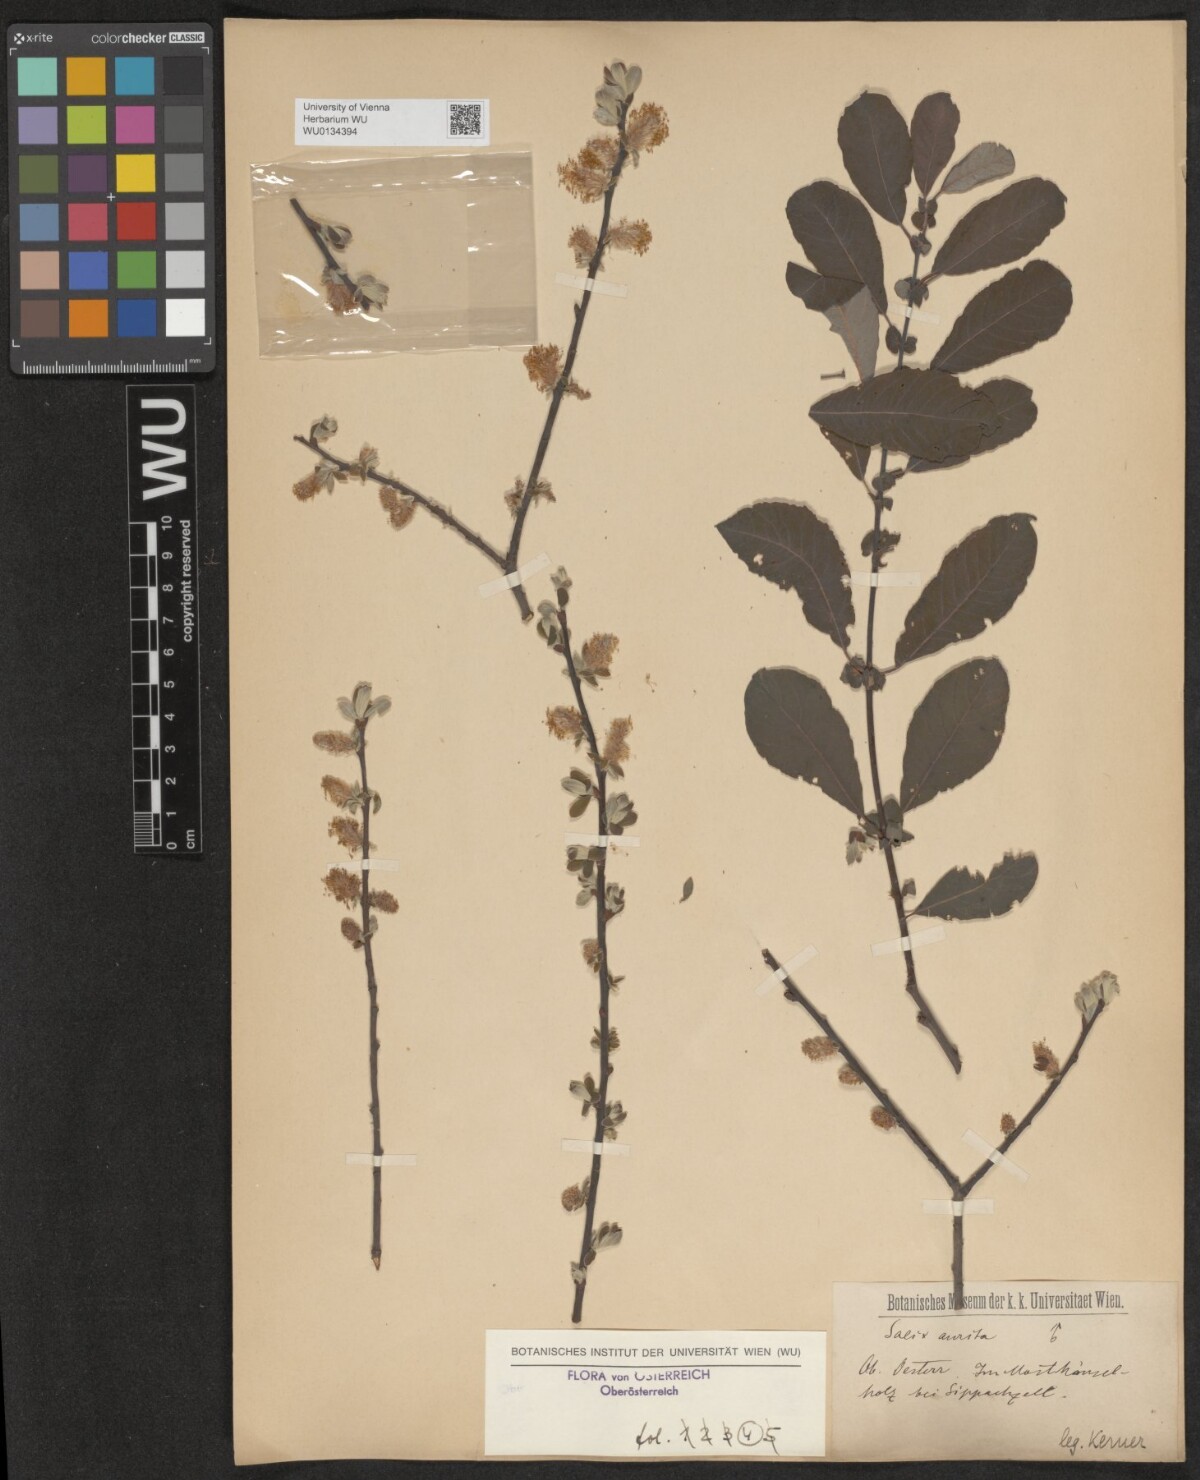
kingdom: Plantae
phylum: Tracheophyta
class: Magnoliopsida
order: Malpighiales
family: Salicaceae
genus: Salix
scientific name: Salix aurita
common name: Eared willow
